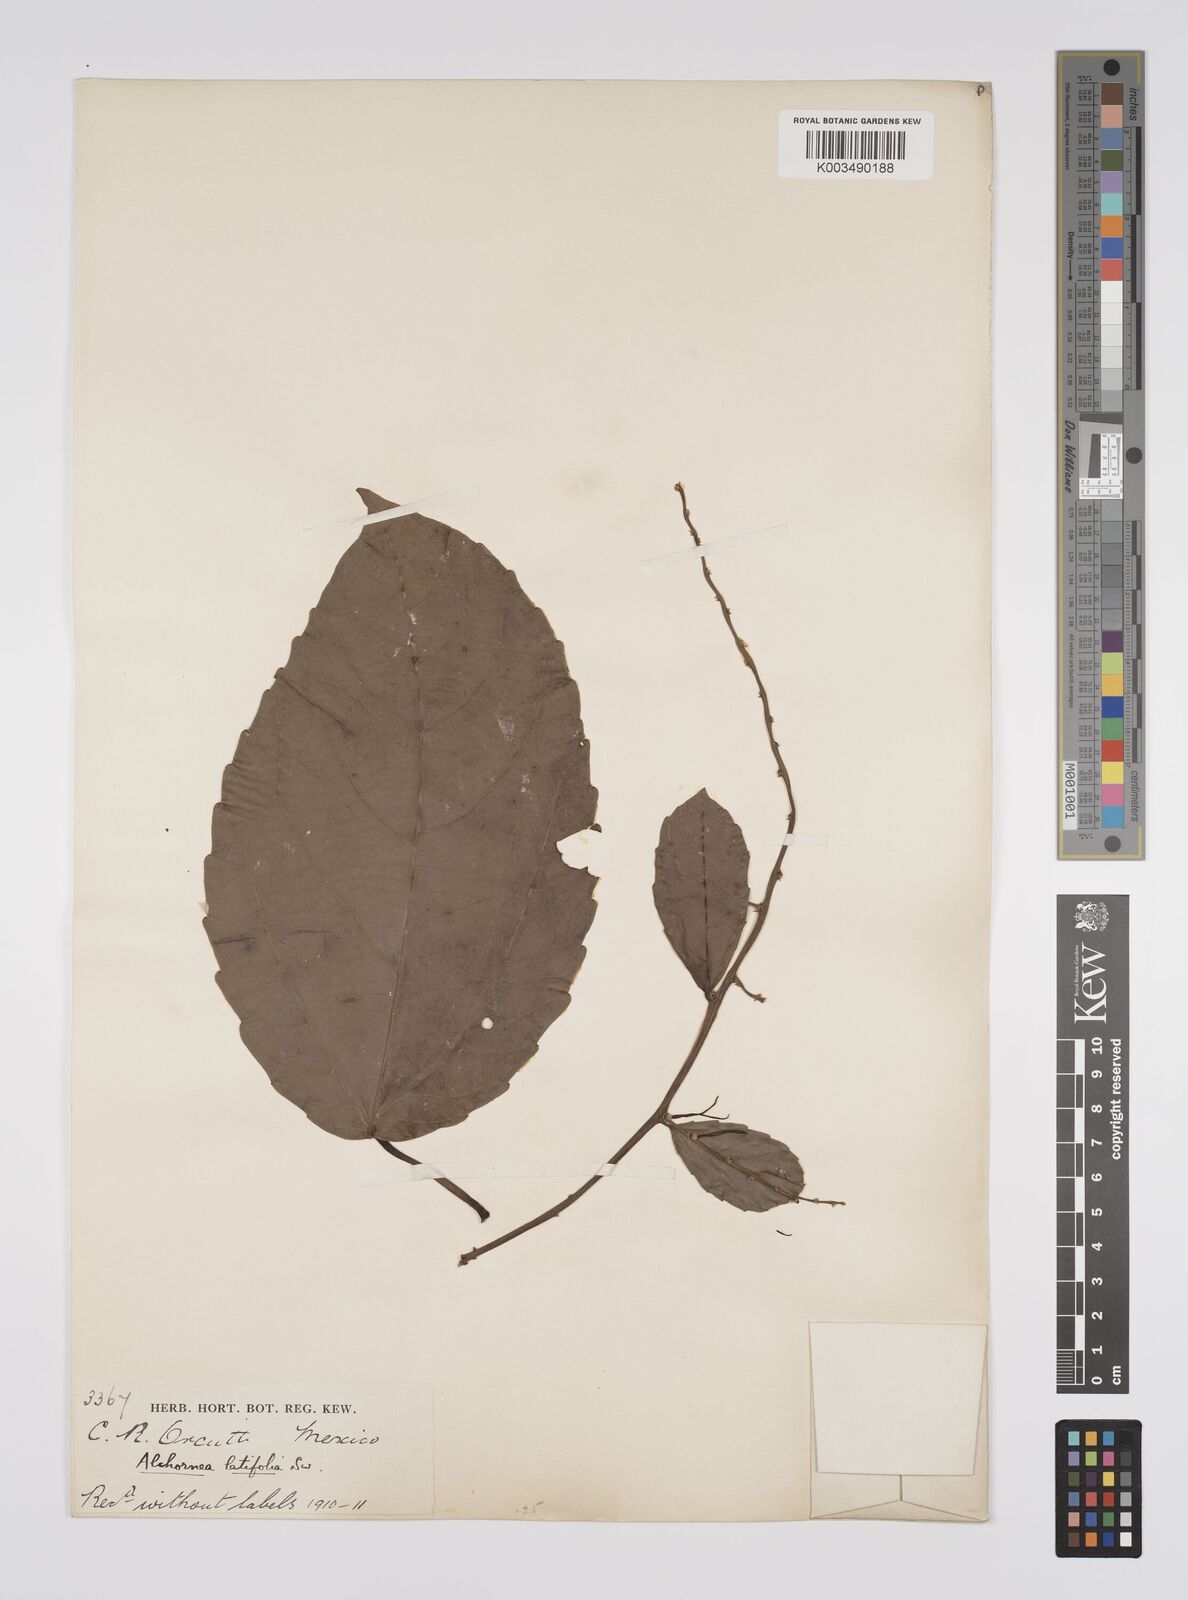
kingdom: Plantae
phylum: Tracheophyta
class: Magnoliopsida
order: Malpighiales
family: Euphorbiaceae
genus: Alchornea
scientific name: Alchornea latifolia
